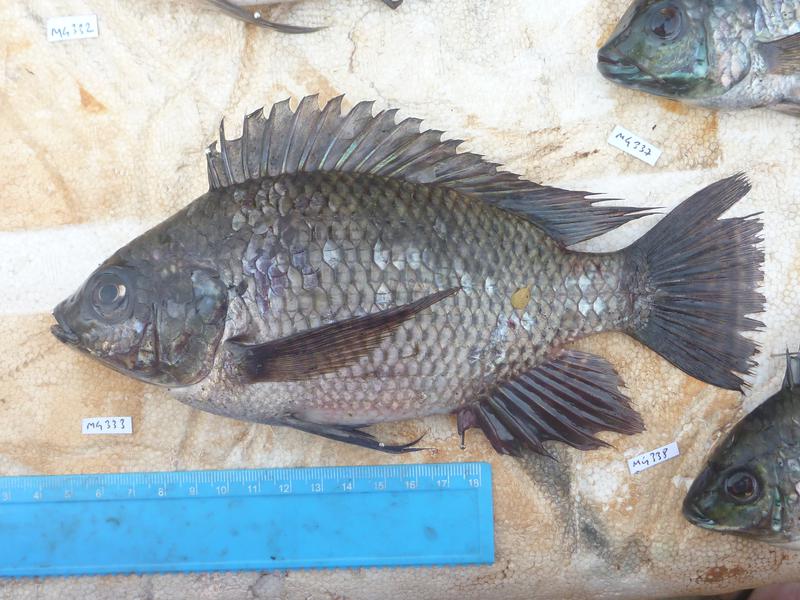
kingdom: Animalia
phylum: Chordata
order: Perciformes
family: Cichlidae
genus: Oreochromis
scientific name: Oreochromis niloticus
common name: Nile tilapia
